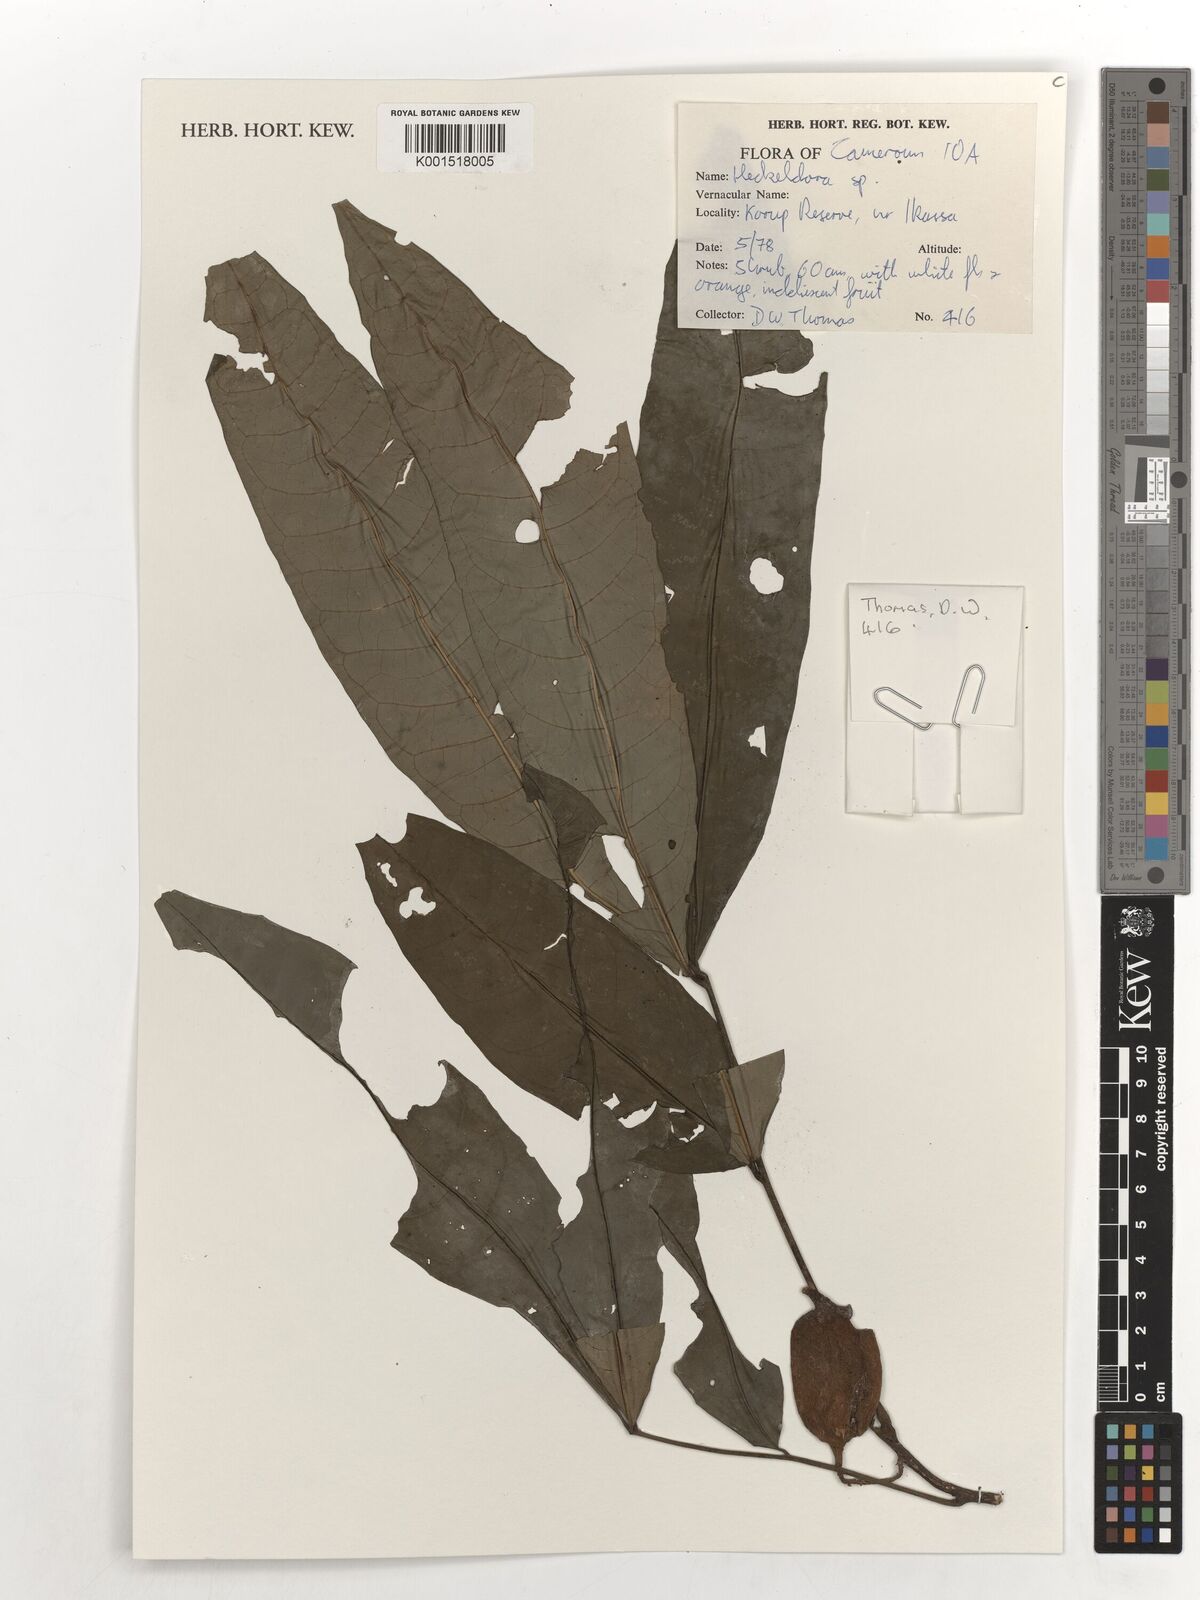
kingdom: Plantae
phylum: Tracheophyta
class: Magnoliopsida
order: Sapindales
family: Meliaceae
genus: Heckeldora
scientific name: Heckeldora
